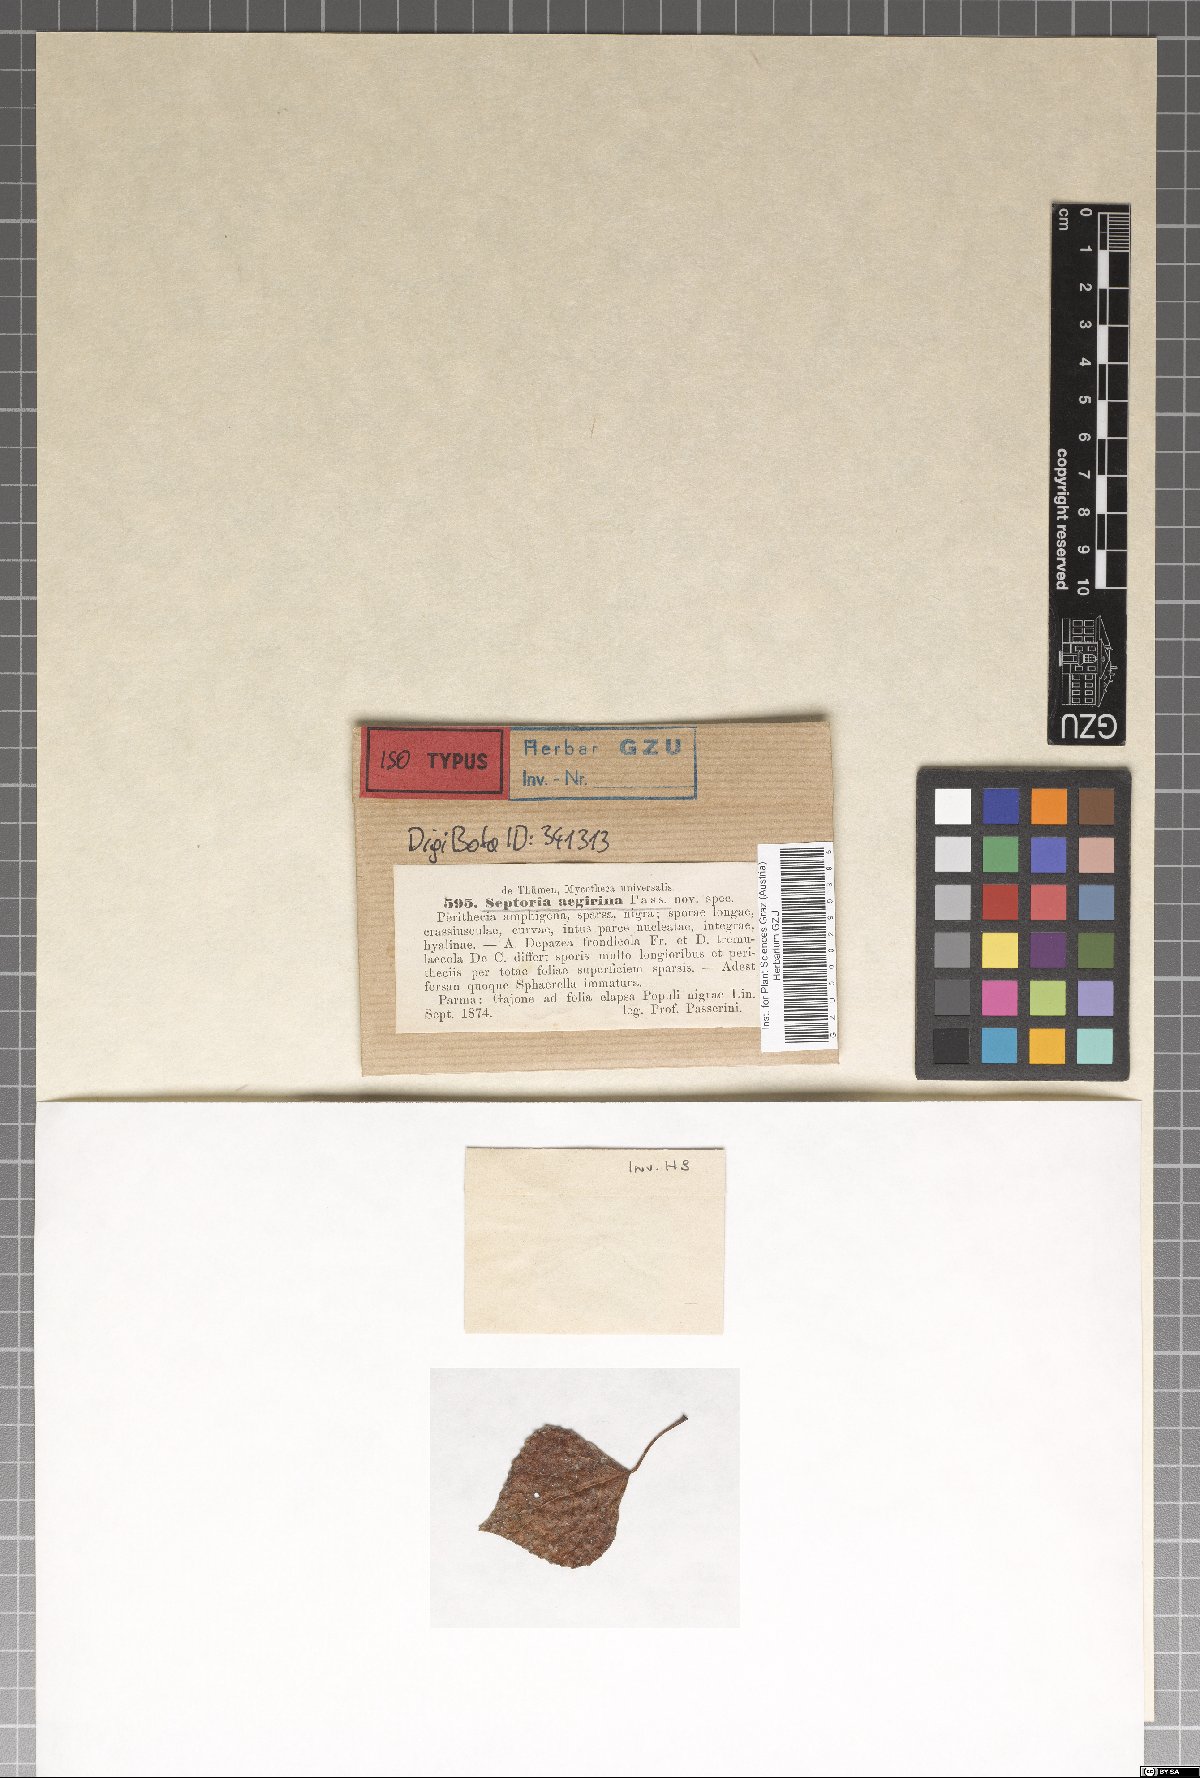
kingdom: Fungi
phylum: Ascomycota
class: Dothideomycetes
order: Mycosphaerellales
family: Mycosphaerellaceae
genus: Septoria
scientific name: Septoria
